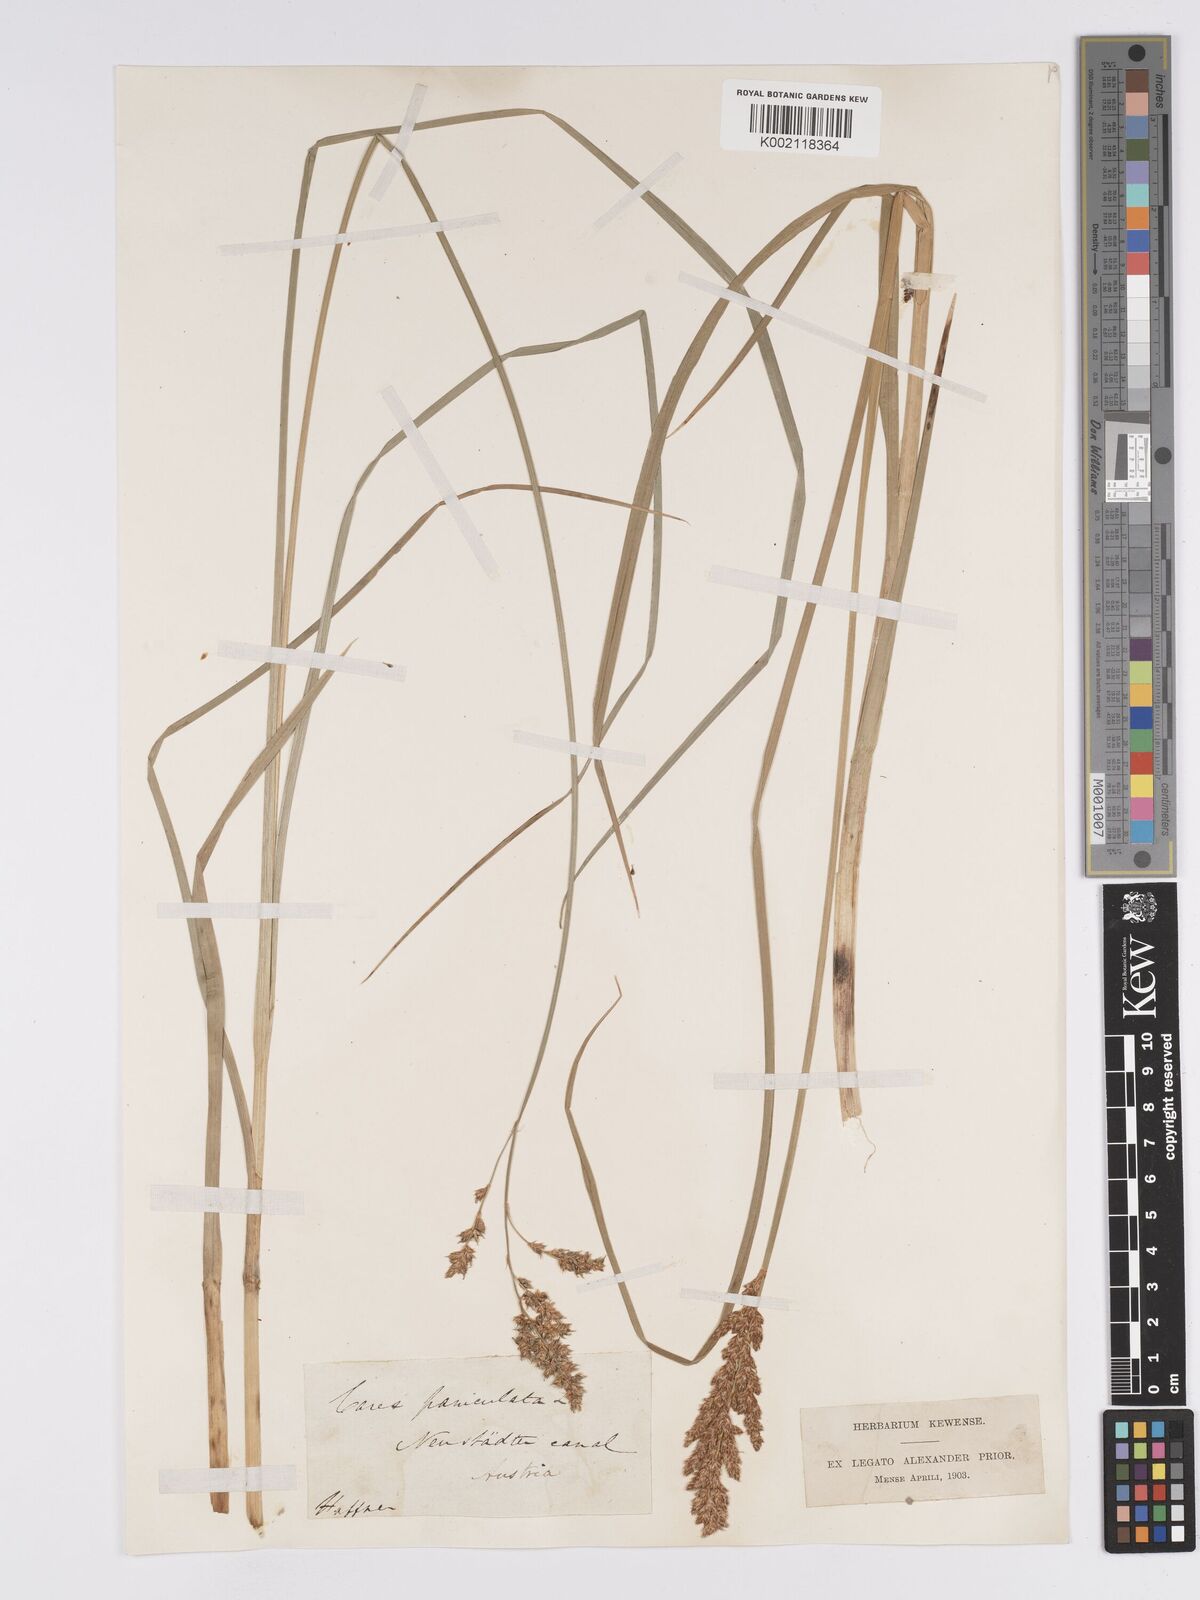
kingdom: Plantae
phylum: Tracheophyta
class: Liliopsida
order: Poales
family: Cyperaceae
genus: Carex
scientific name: Carex paniculata
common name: Greater tussock-sedge
